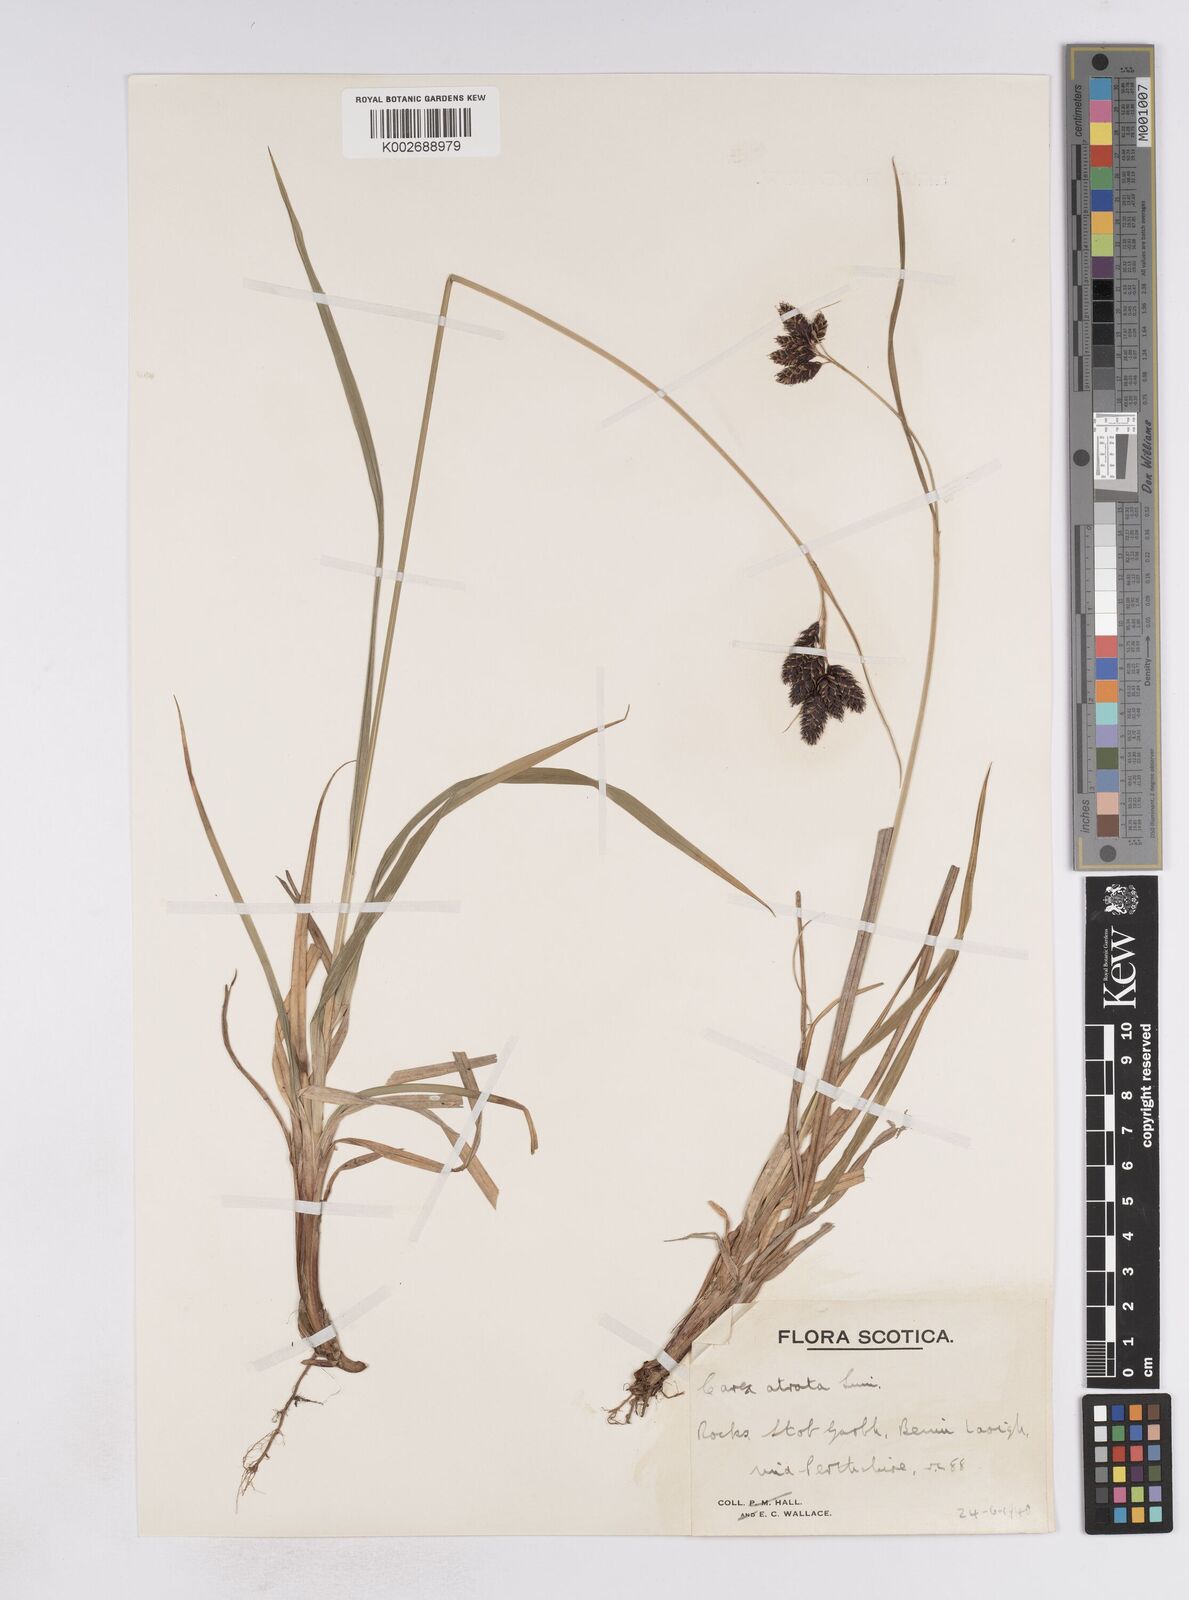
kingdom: Plantae
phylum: Tracheophyta
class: Liliopsida
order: Poales
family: Cyperaceae
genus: Carex
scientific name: Carex atrata
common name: Black alpine sedge
